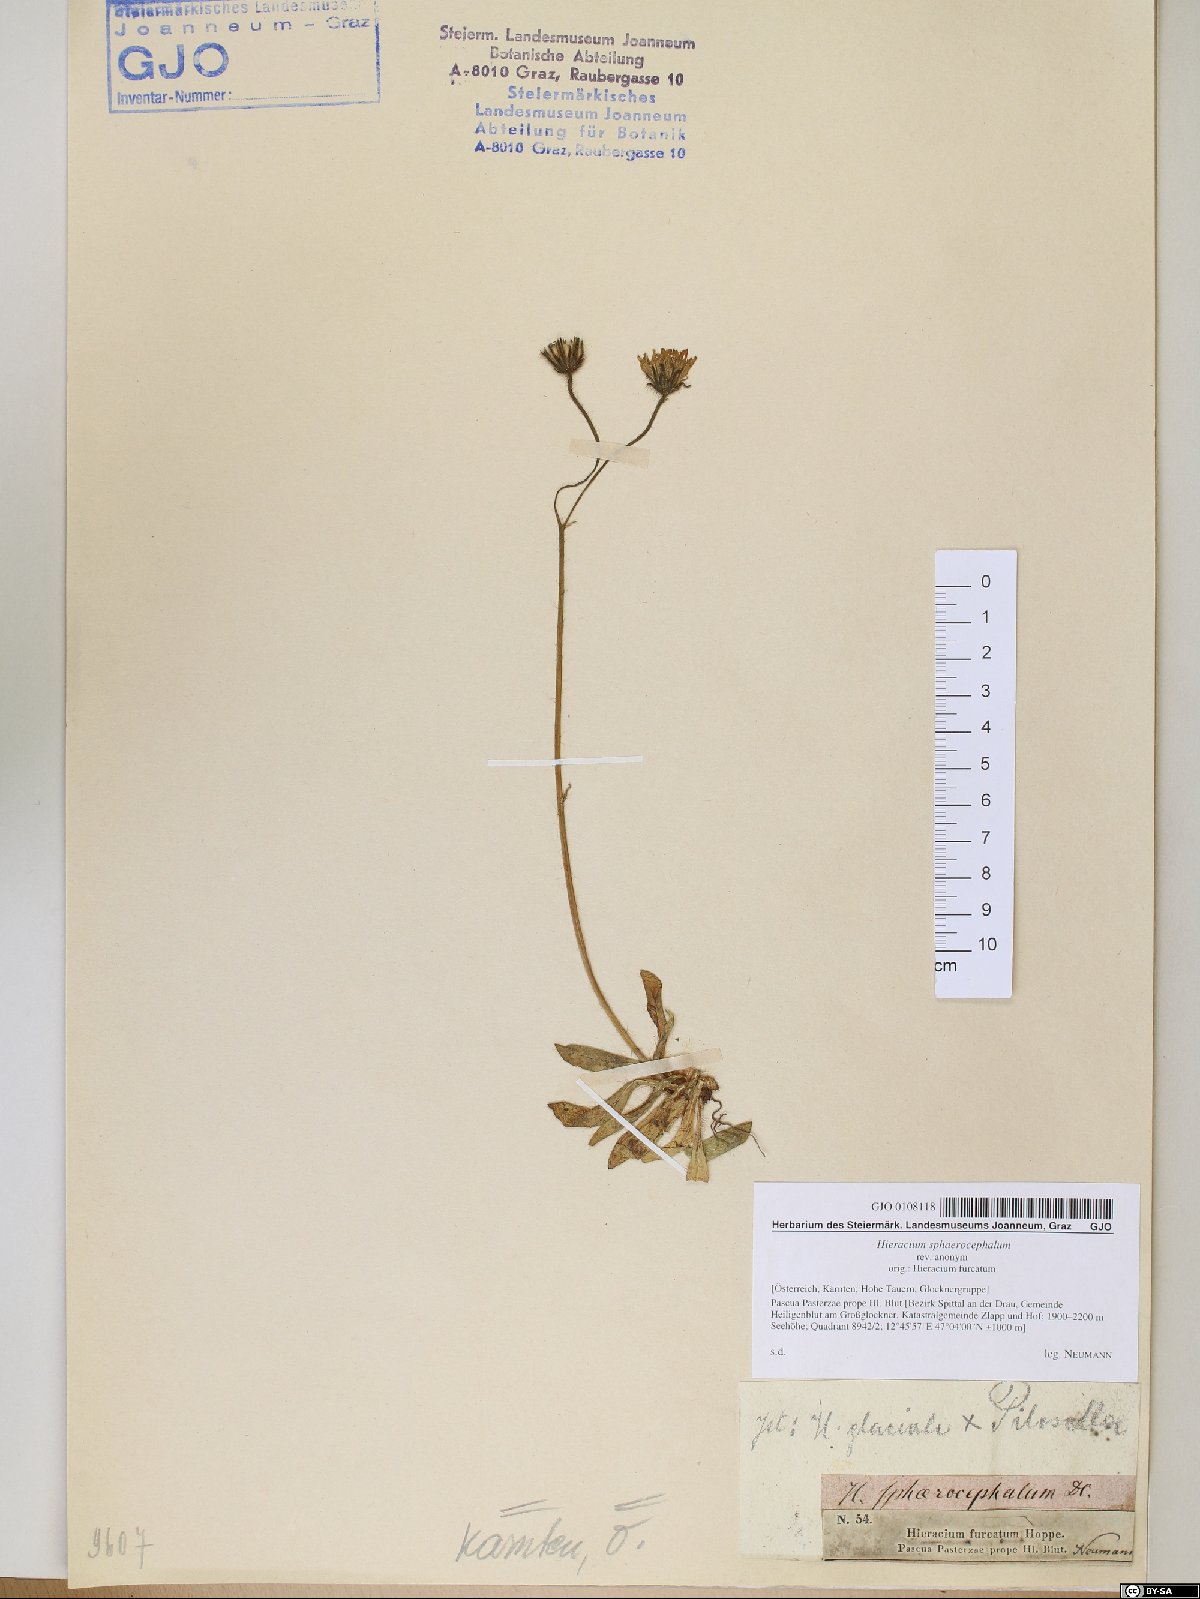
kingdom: Plantae
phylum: Tracheophyta
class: Magnoliopsida
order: Asterales
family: Asteraceae
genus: Pilosella
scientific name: Pilosella sphaerocephala
